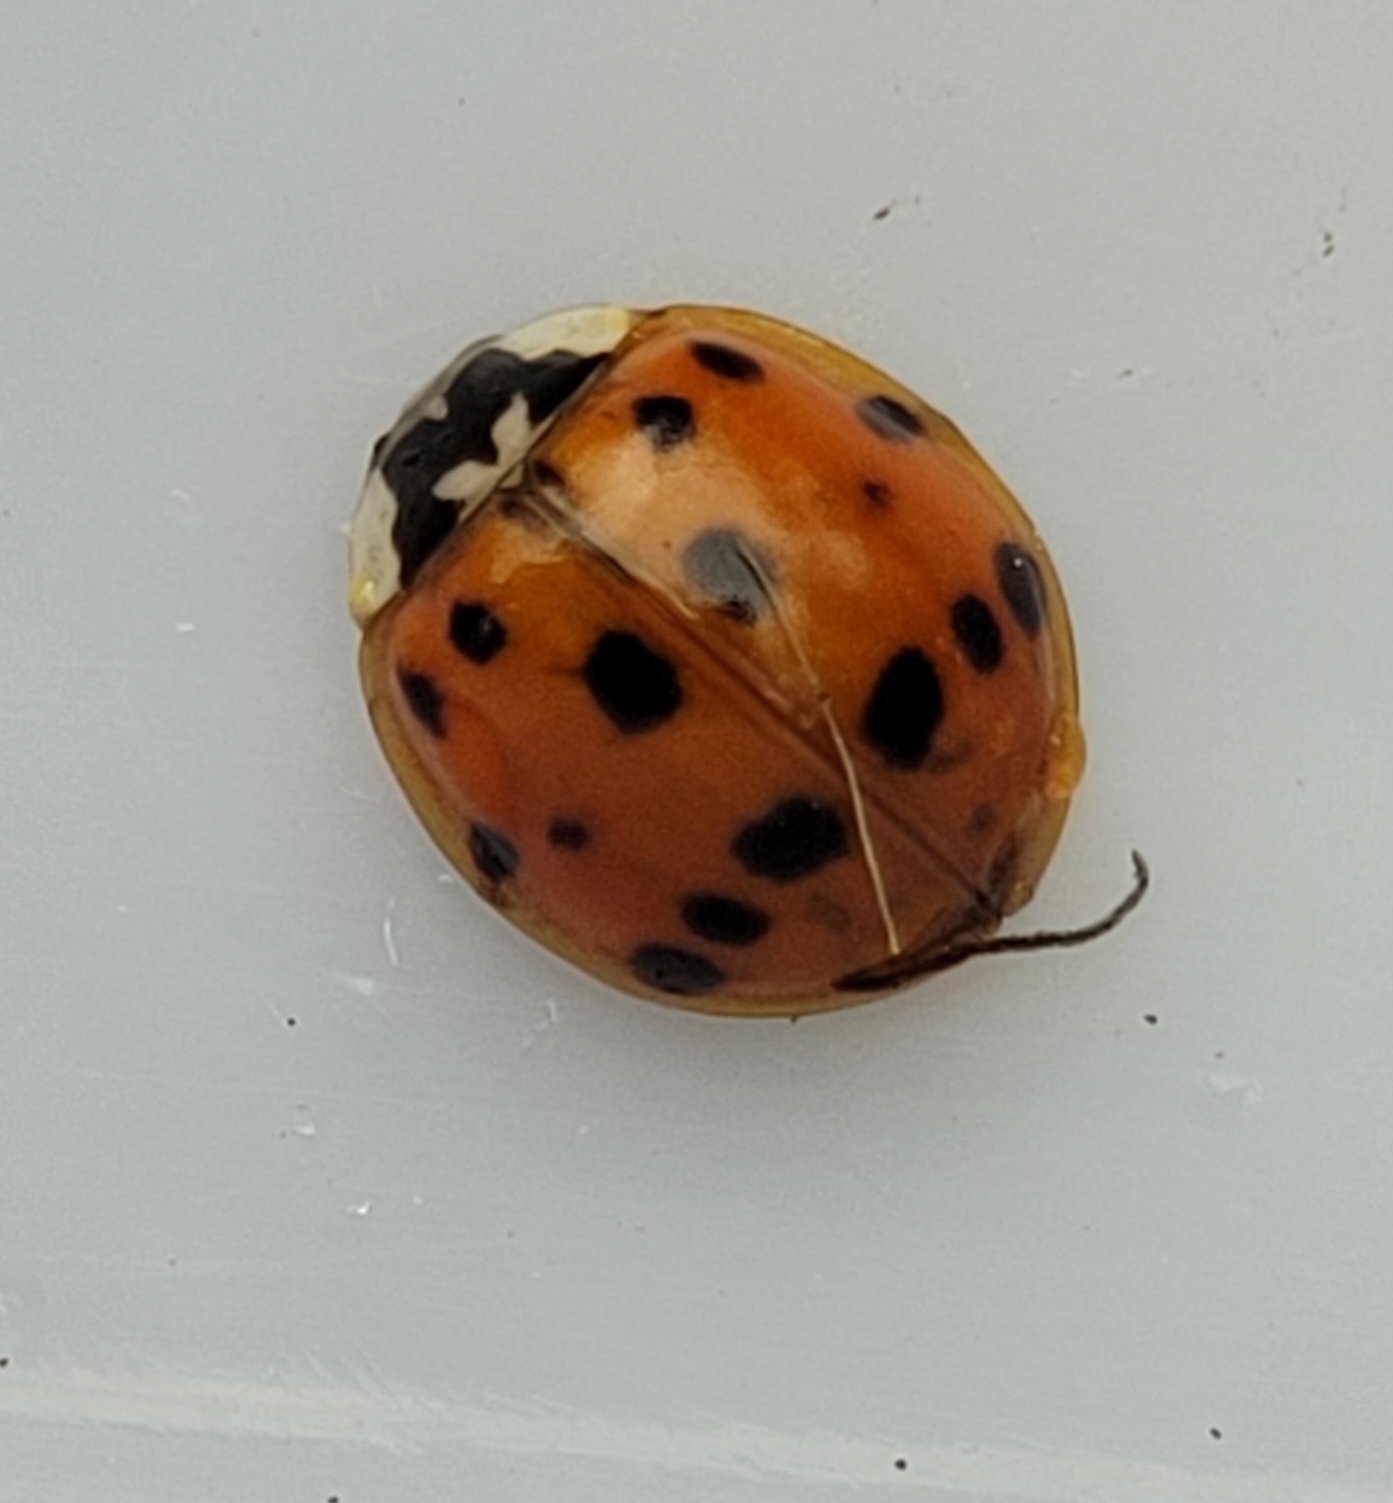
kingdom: Animalia
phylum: Arthropoda
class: Insecta
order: Coleoptera
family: Coccinellidae
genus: Harmonia
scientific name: Harmonia axyridis
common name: Harlekinmariehøne
